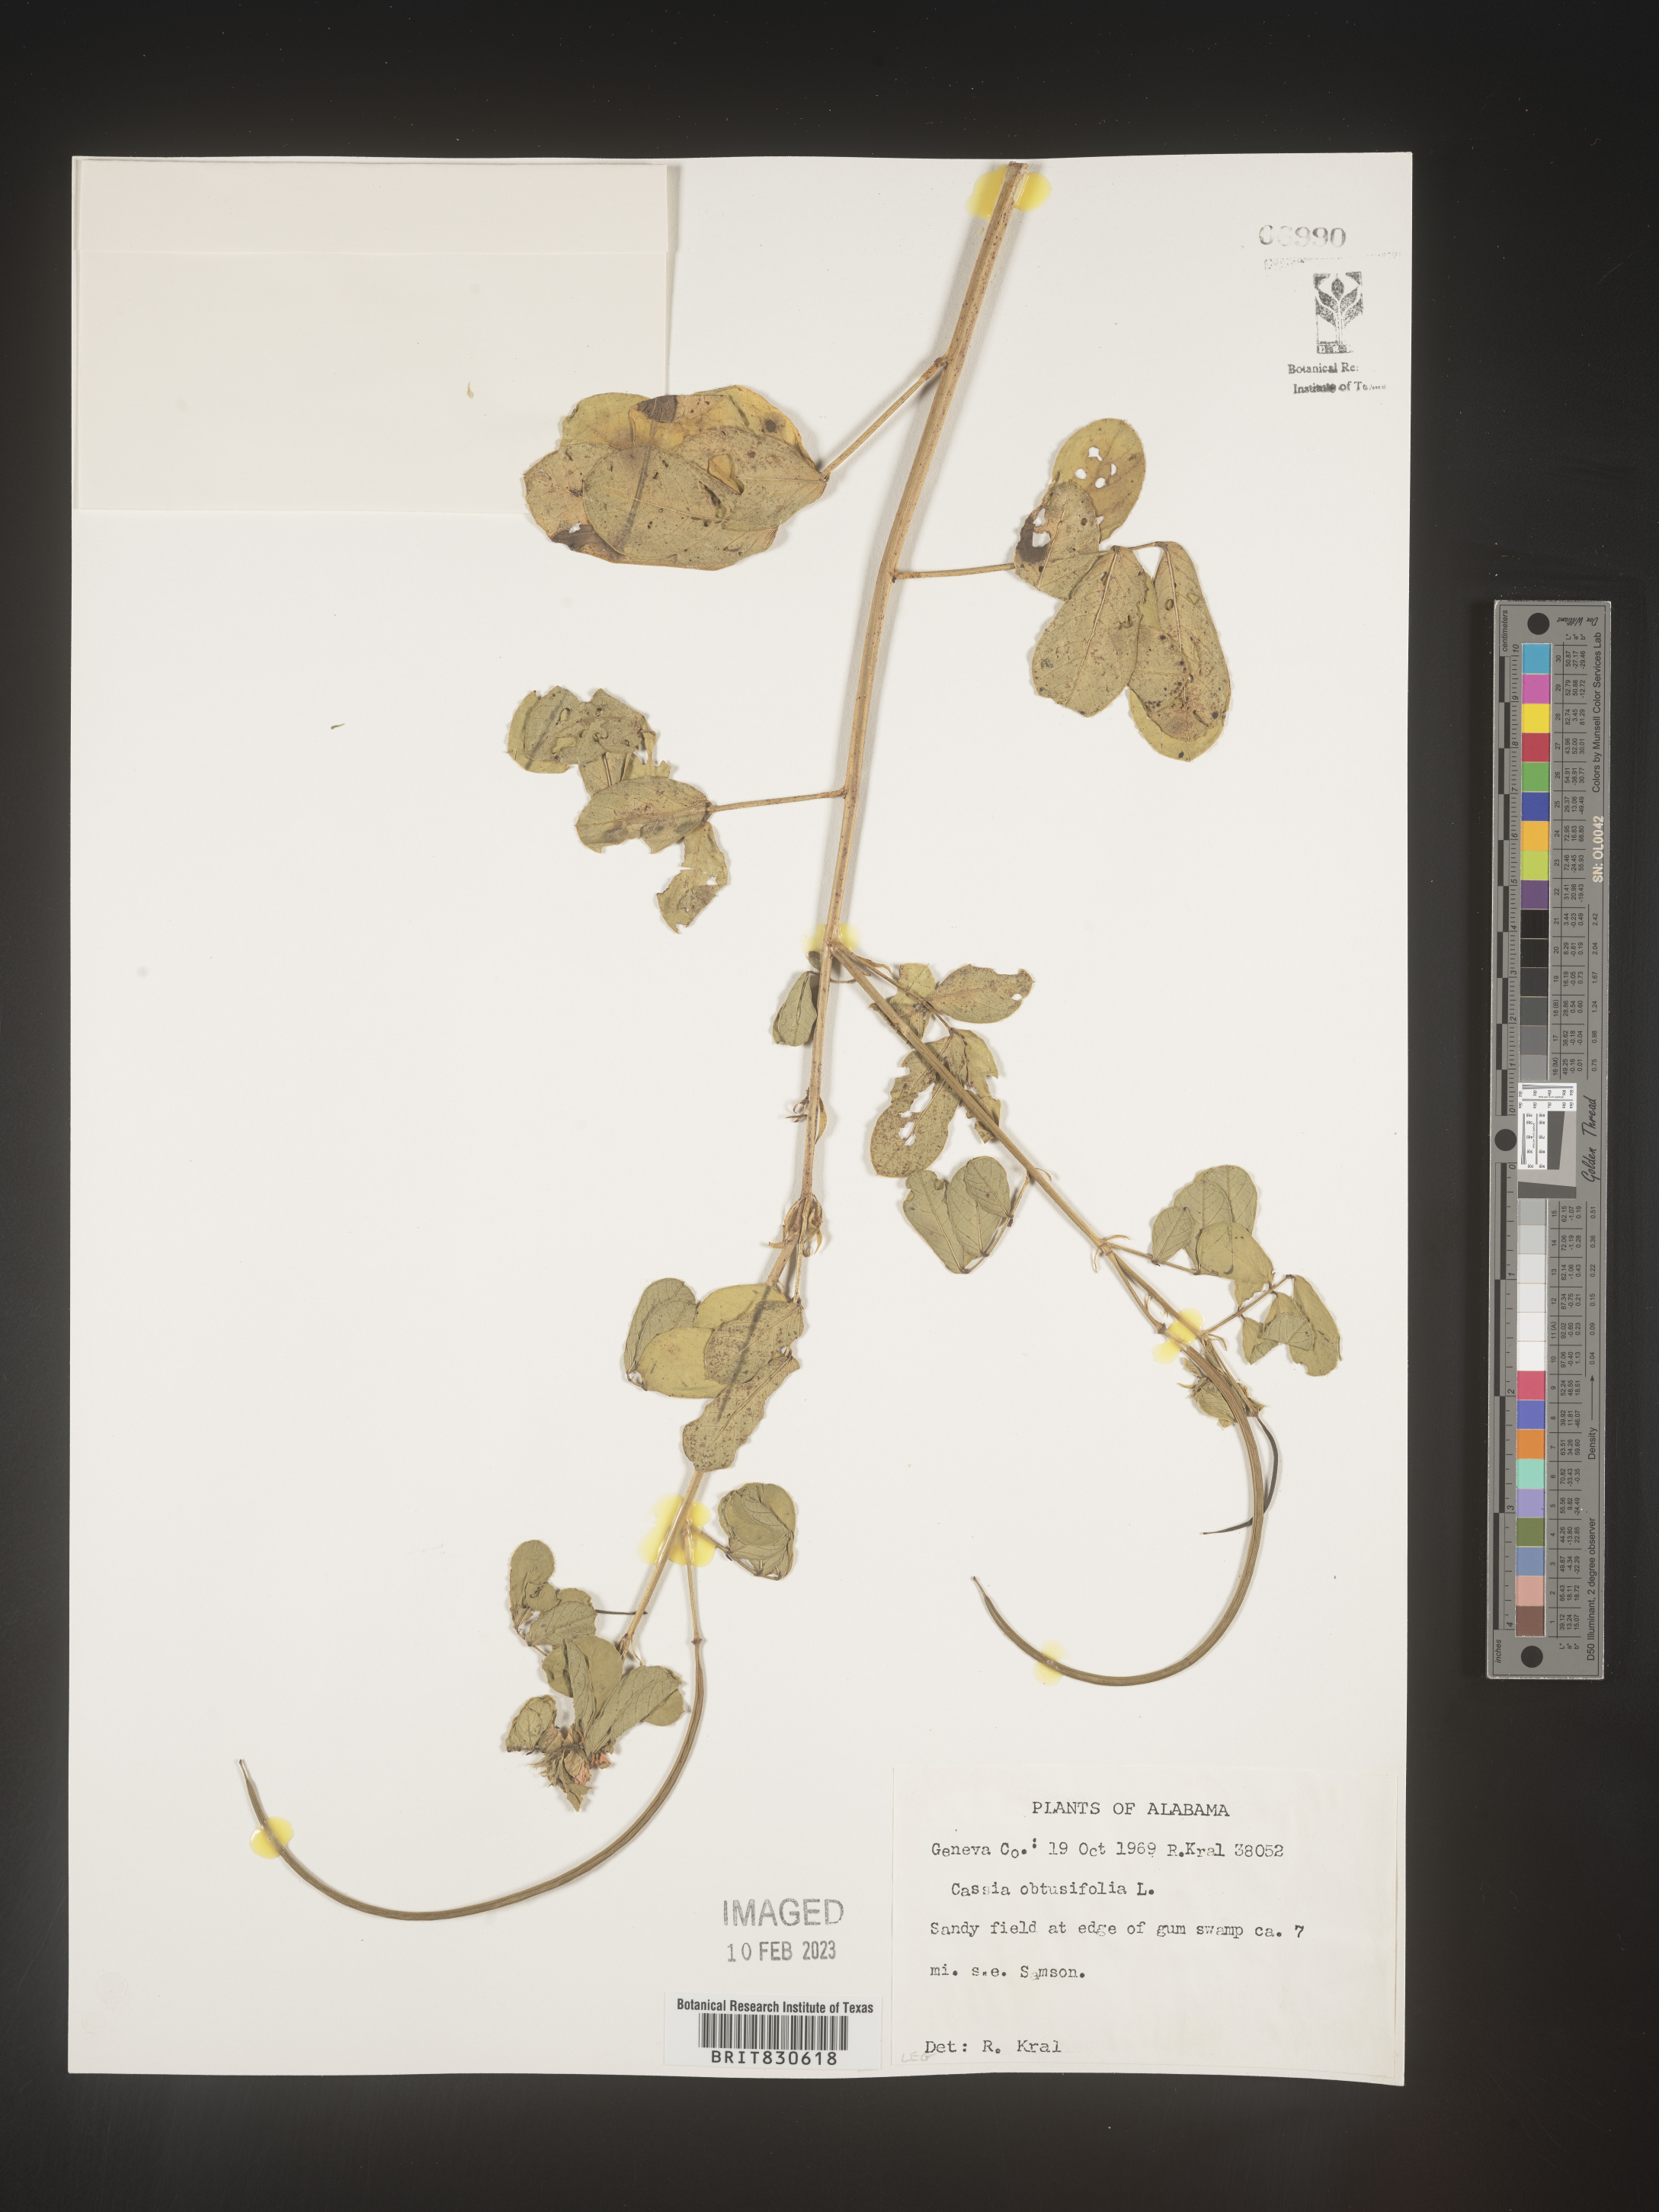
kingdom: Plantae
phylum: Tracheophyta
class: Magnoliopsida
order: Fabales
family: Fabaceae
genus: Senna
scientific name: Senna obtusifolia
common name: Java-bean
